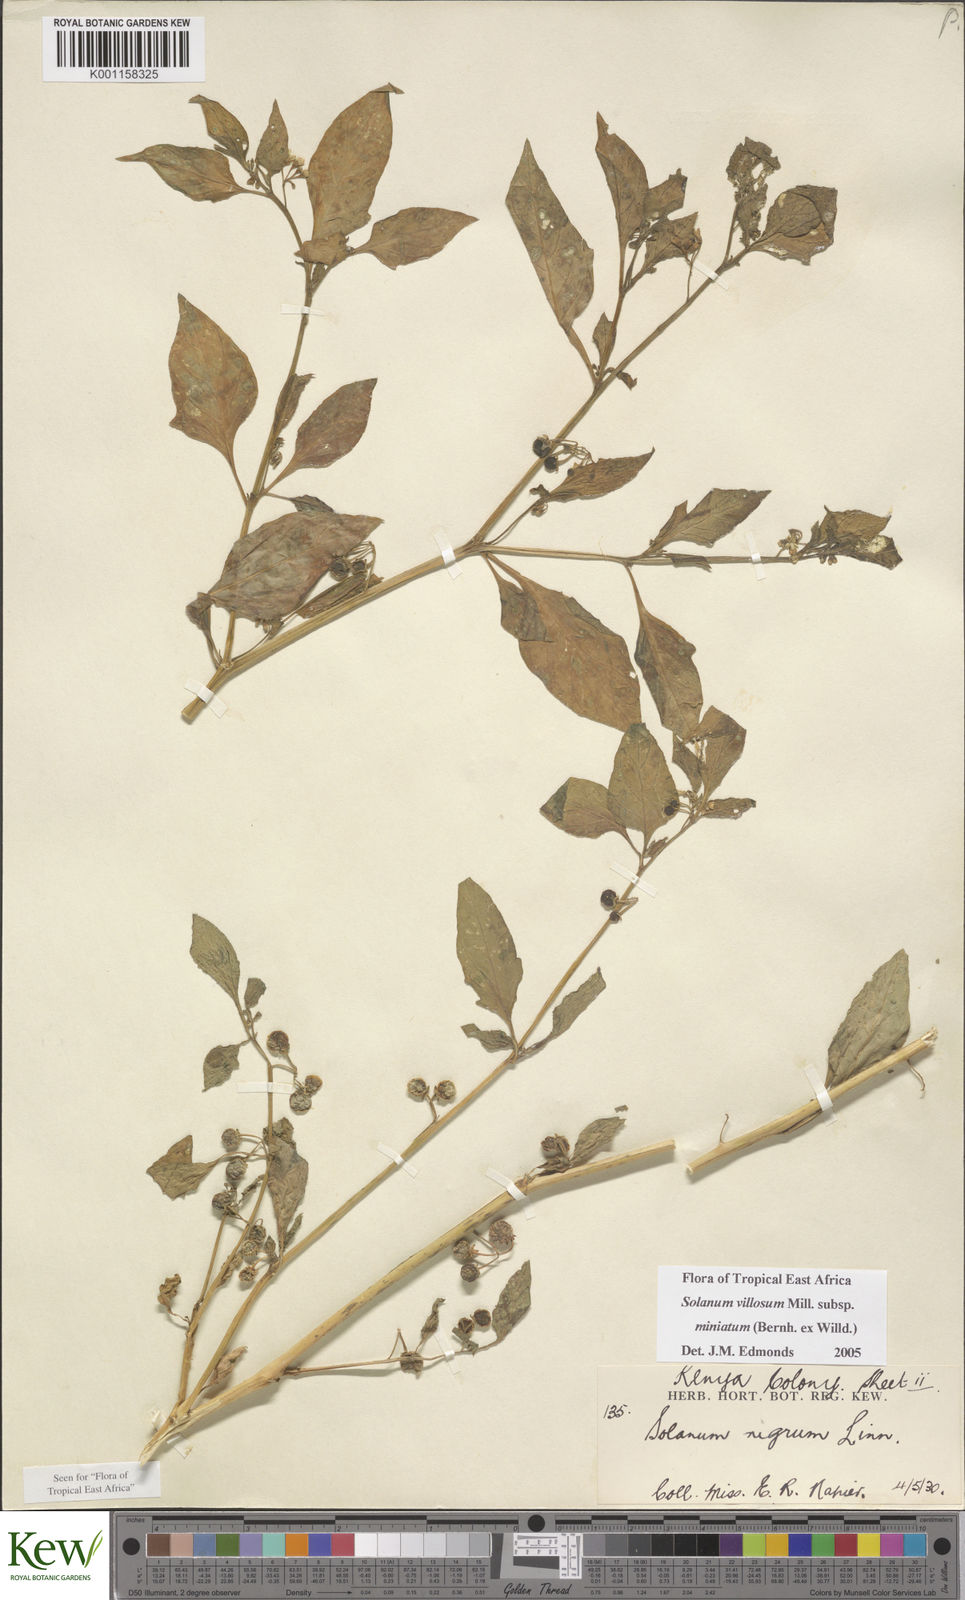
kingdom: Plantae
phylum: Tracheophyta
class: Magnoliopsida
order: Solanales
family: Solanaceae
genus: Solanum
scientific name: Solanum villosum
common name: Red nightshade
